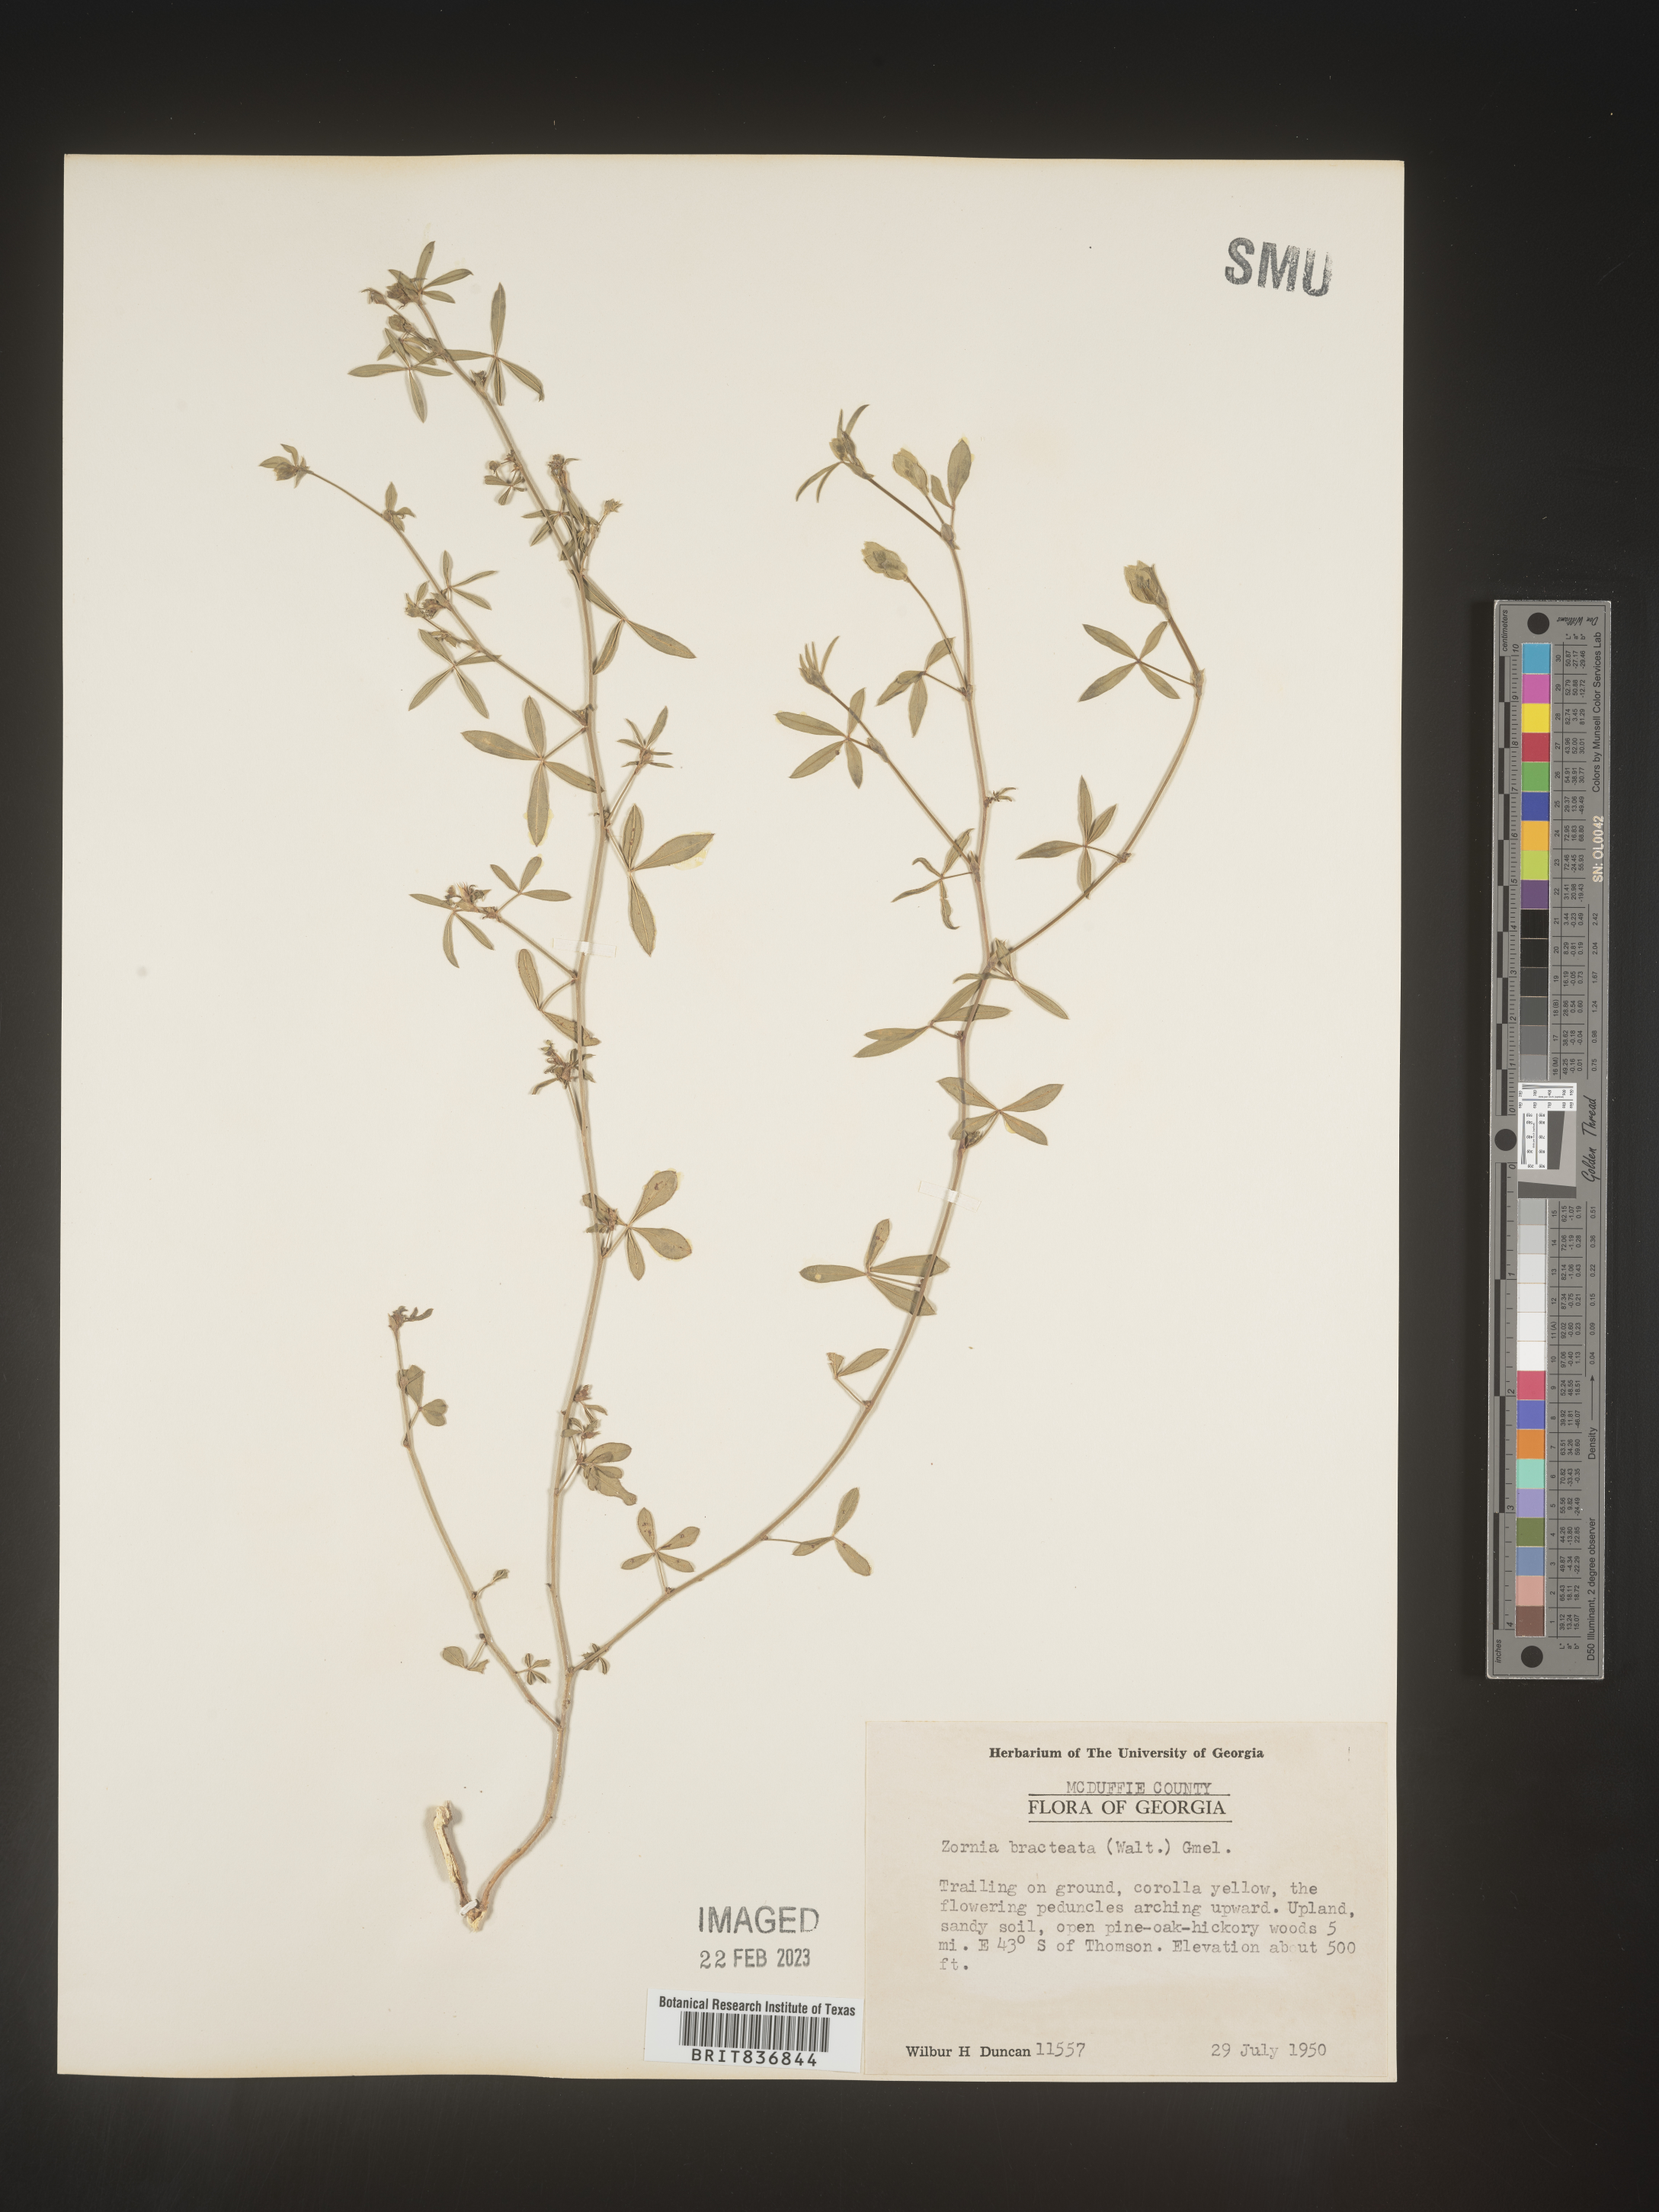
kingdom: Plantae
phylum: Tracheophyta
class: Magnoliopsida
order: Fabales
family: Fabaceae
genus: Zornia
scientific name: Zornia
